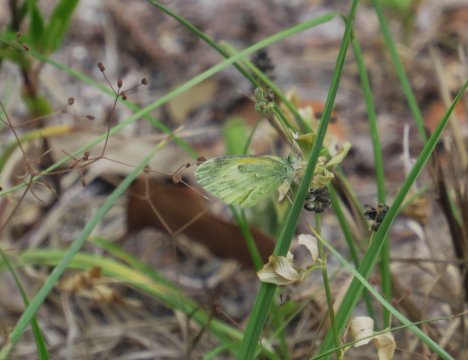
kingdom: Animalia
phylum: Arthropoda
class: Insecta
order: Lepidoptera
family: Pieridae
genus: Nathalis
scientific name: Nathalis iole
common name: Dainty Sulphur
